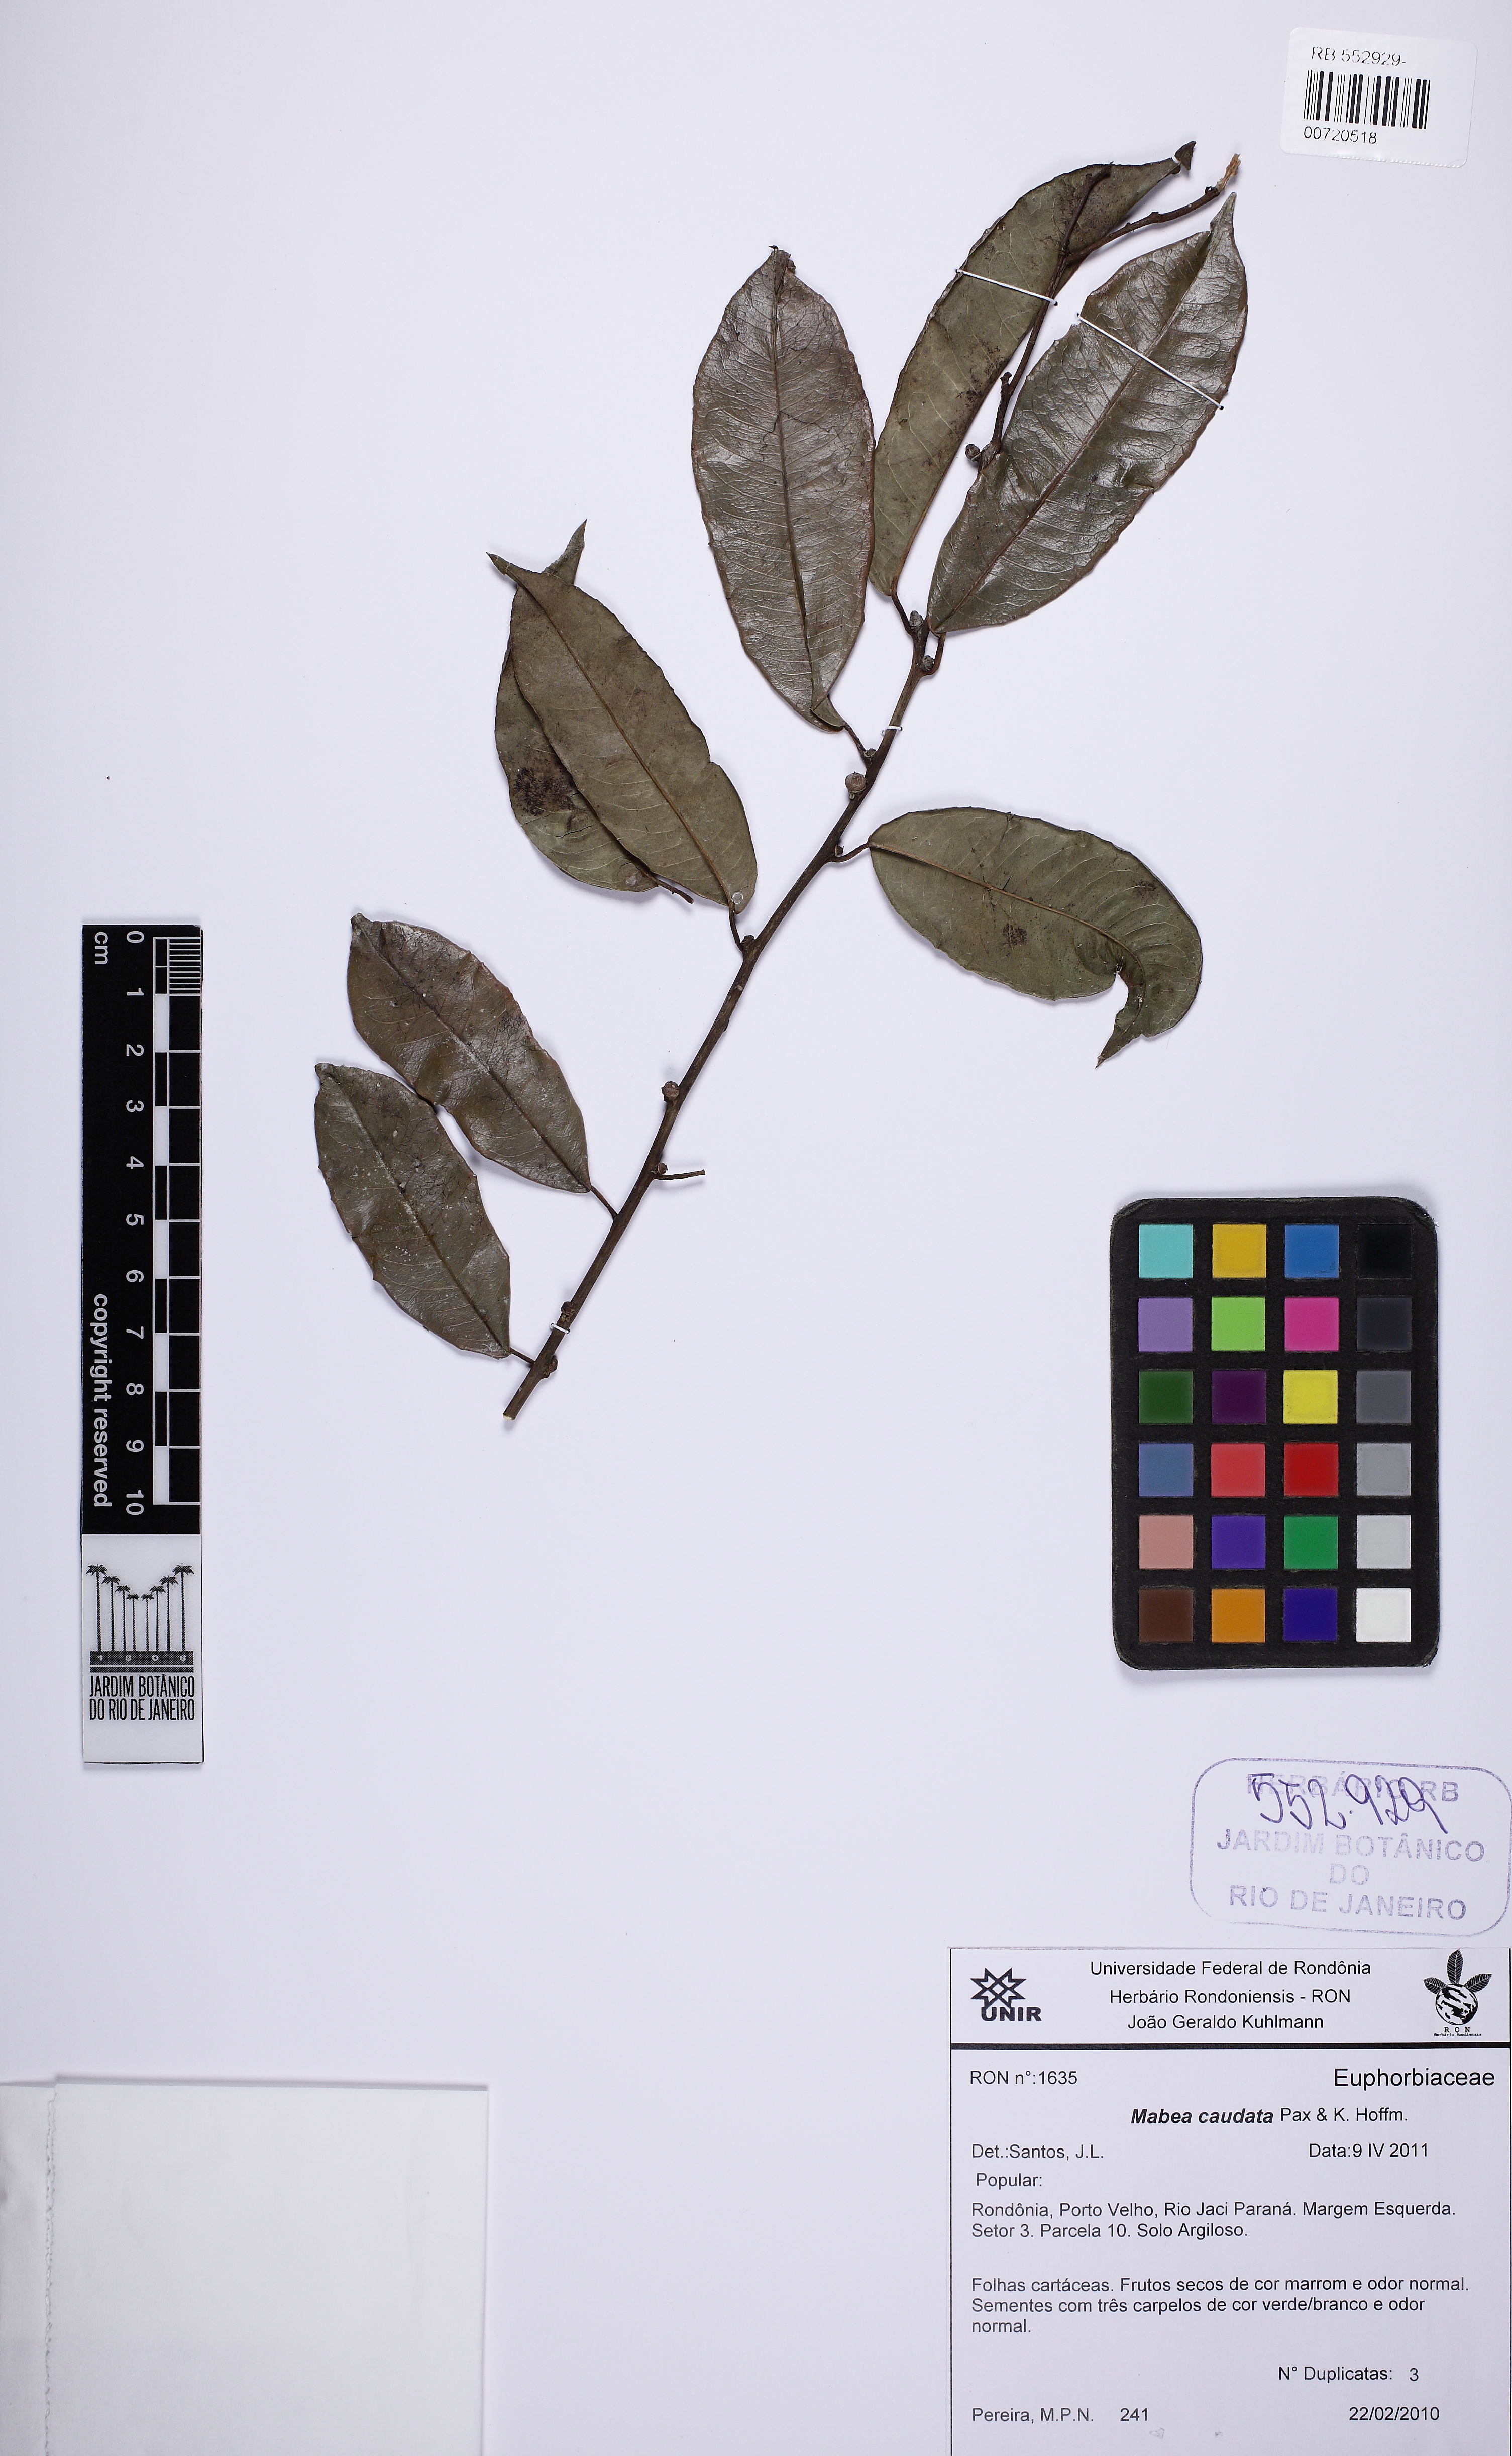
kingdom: Plantae
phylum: Tracheophyta
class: Magnoliopsida
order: Malpighiales
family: Euphorbiaceae
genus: Mabea
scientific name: Mabea caudata
